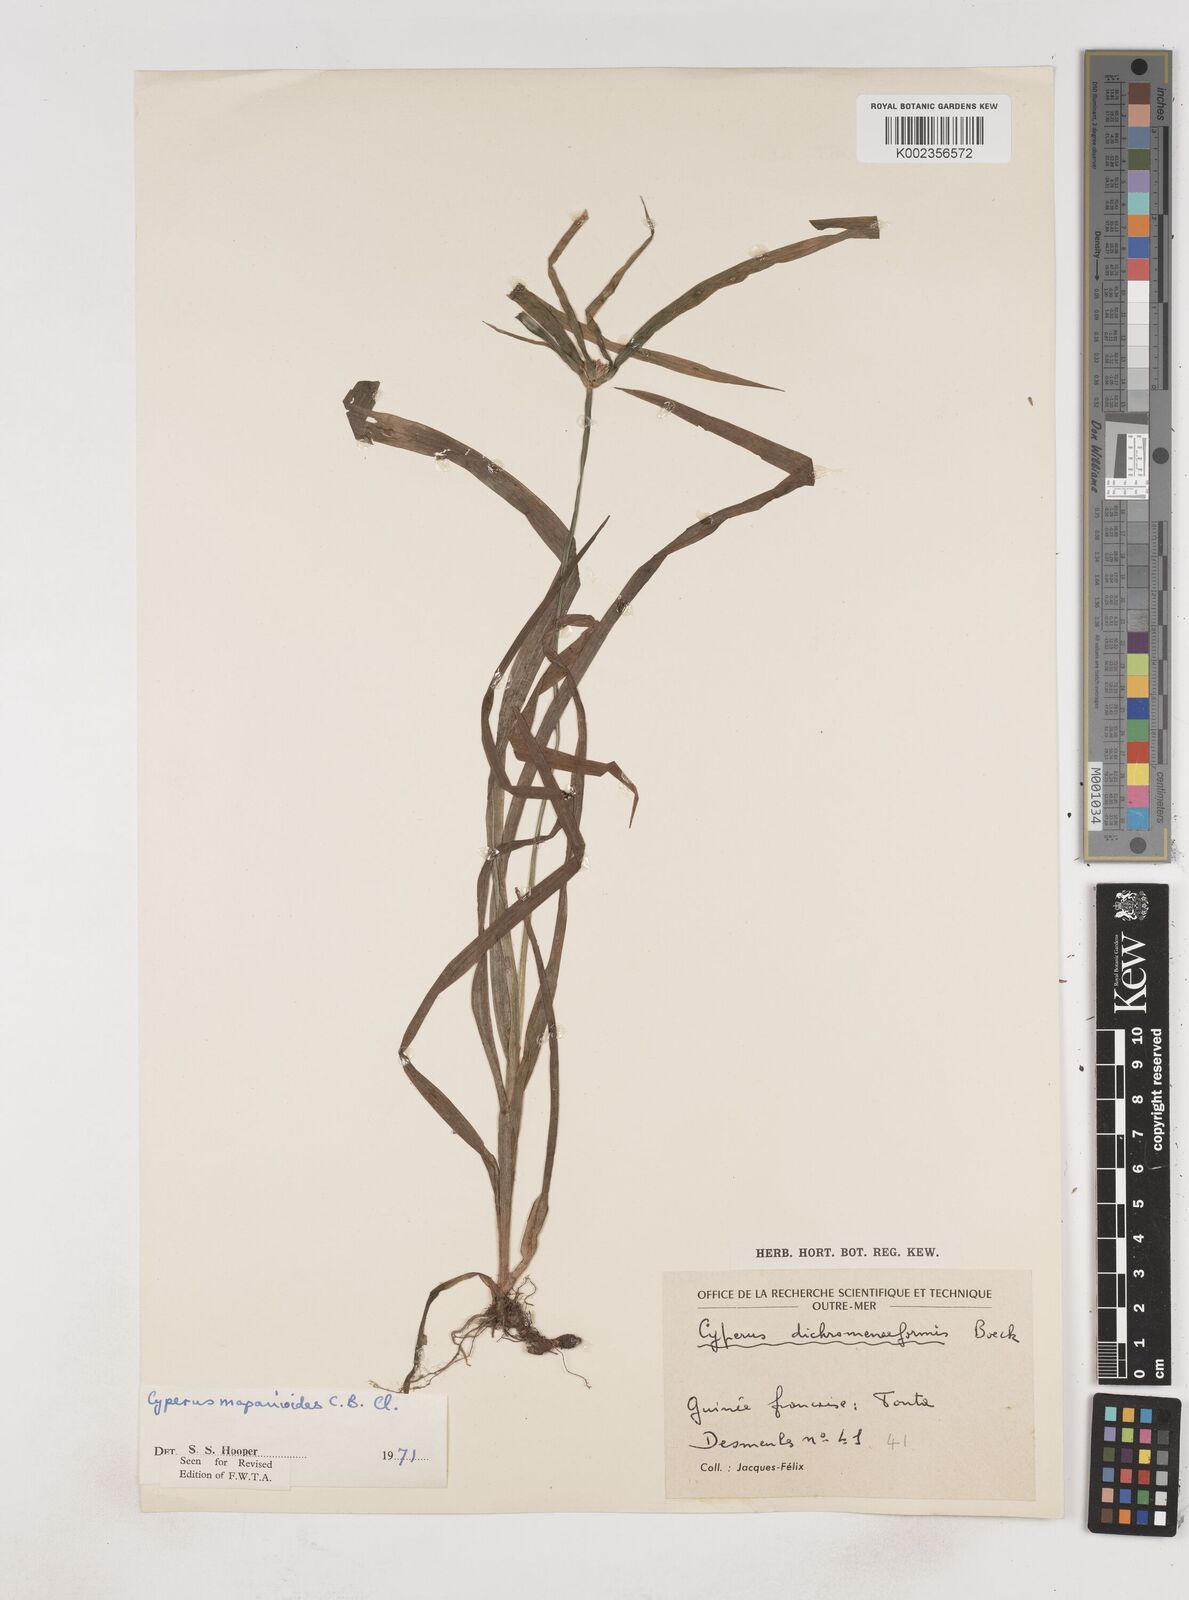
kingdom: Plantae
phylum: Tracheophyta
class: Liliopsida
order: Poales
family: Cyperaceae
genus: Cyperus
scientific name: Cyperus mapanioides
